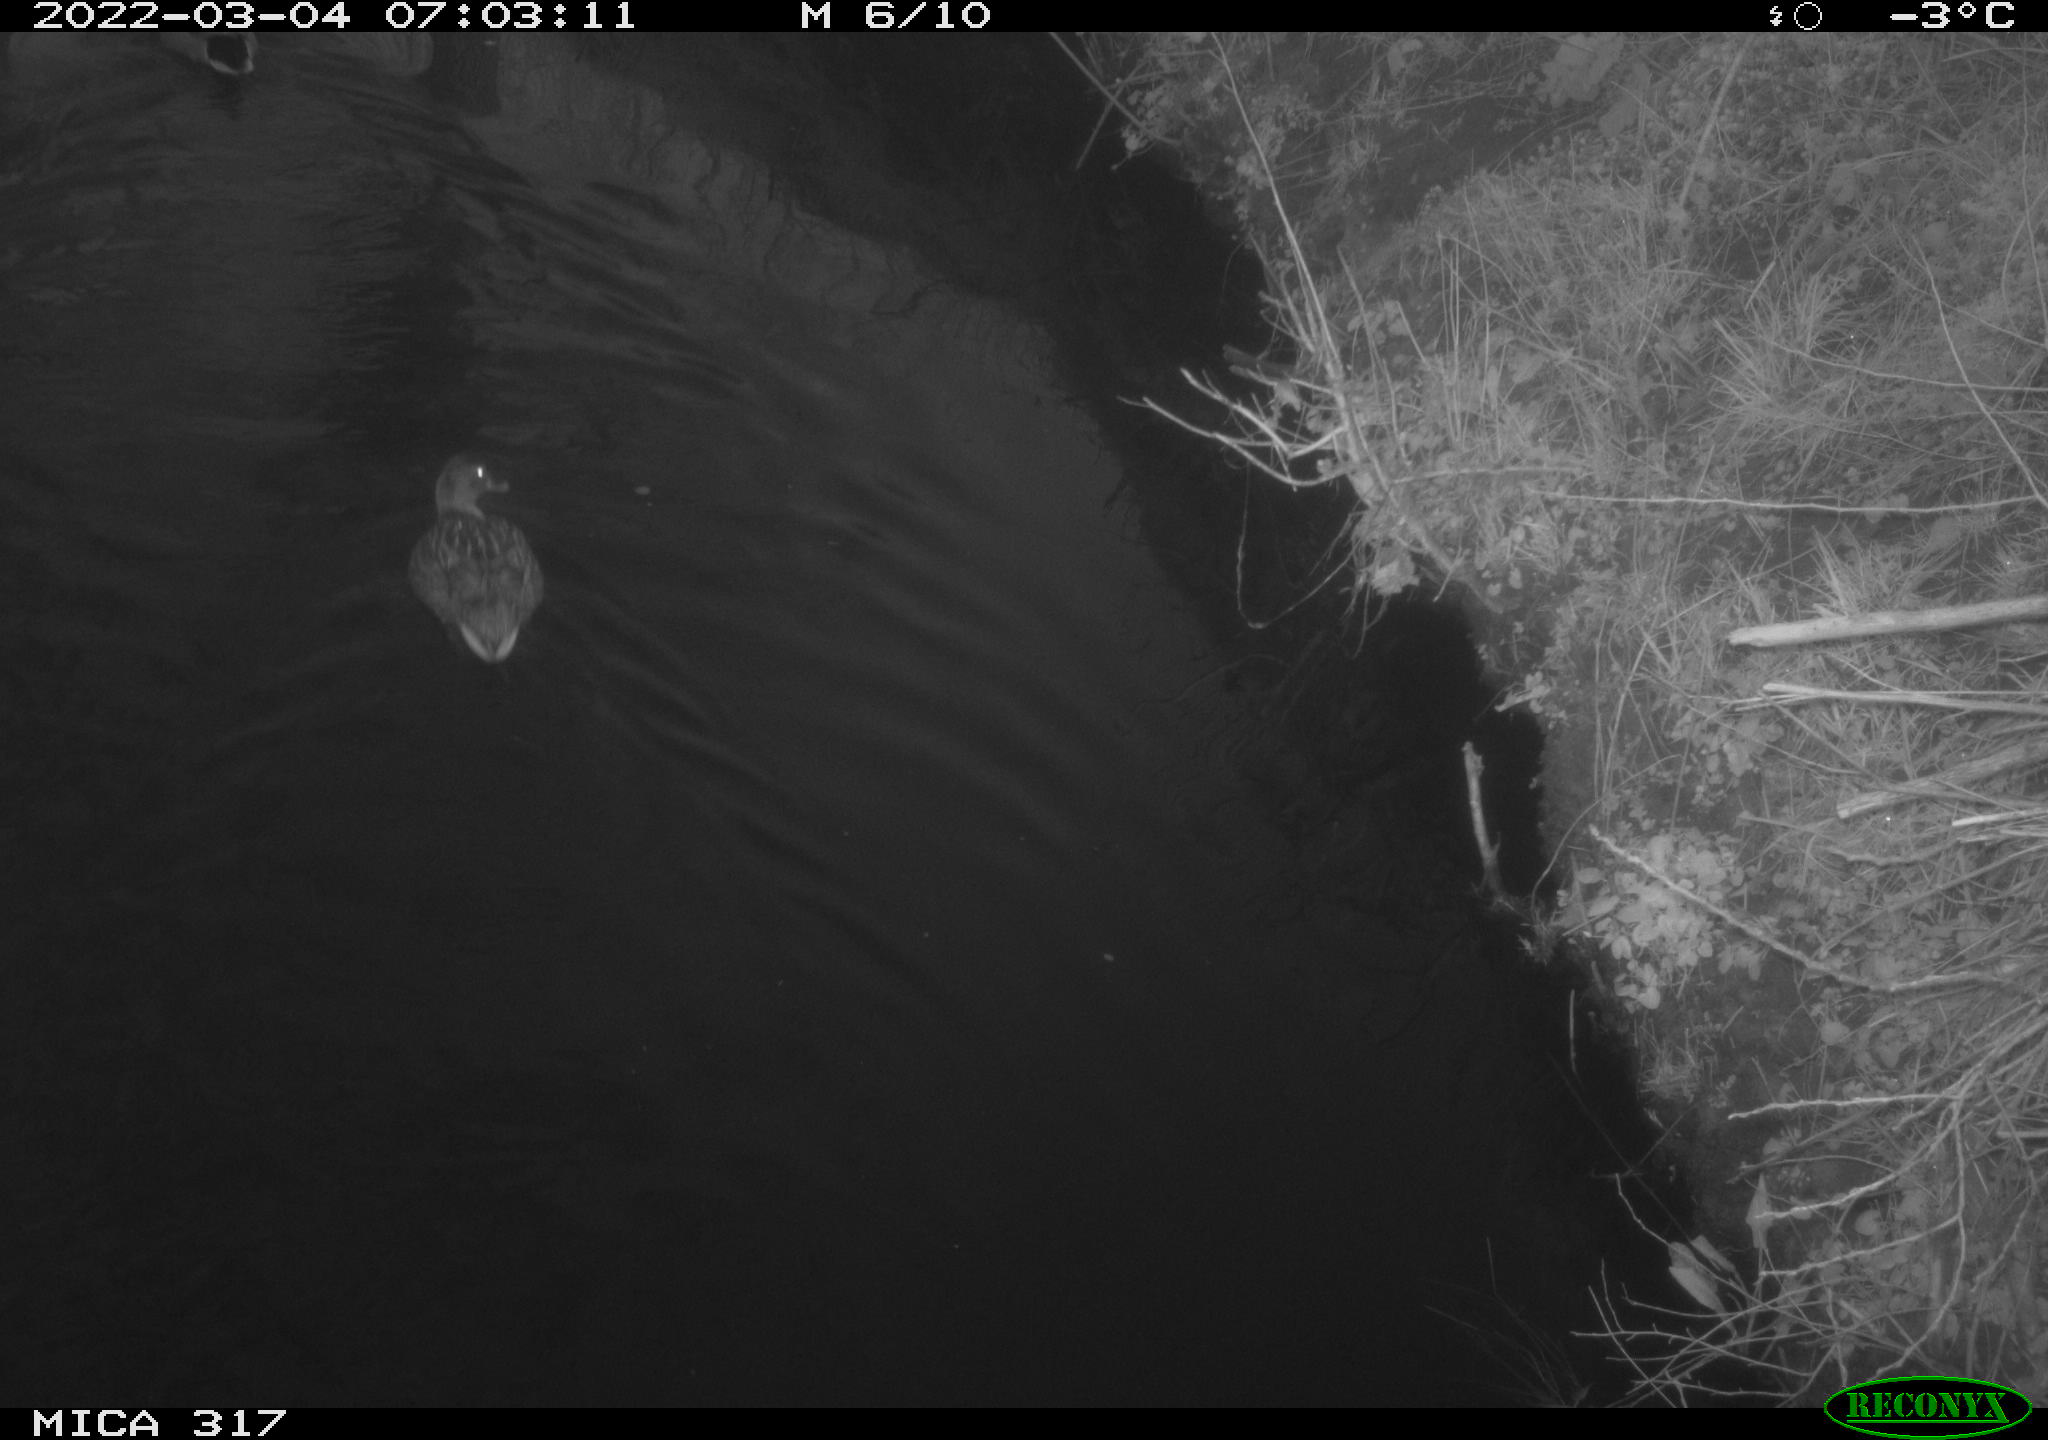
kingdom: Animalia
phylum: Chordata
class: Aves
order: Anseriformes
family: Anatidae
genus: Anas
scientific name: Anas platyrhynchos
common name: Mallard
